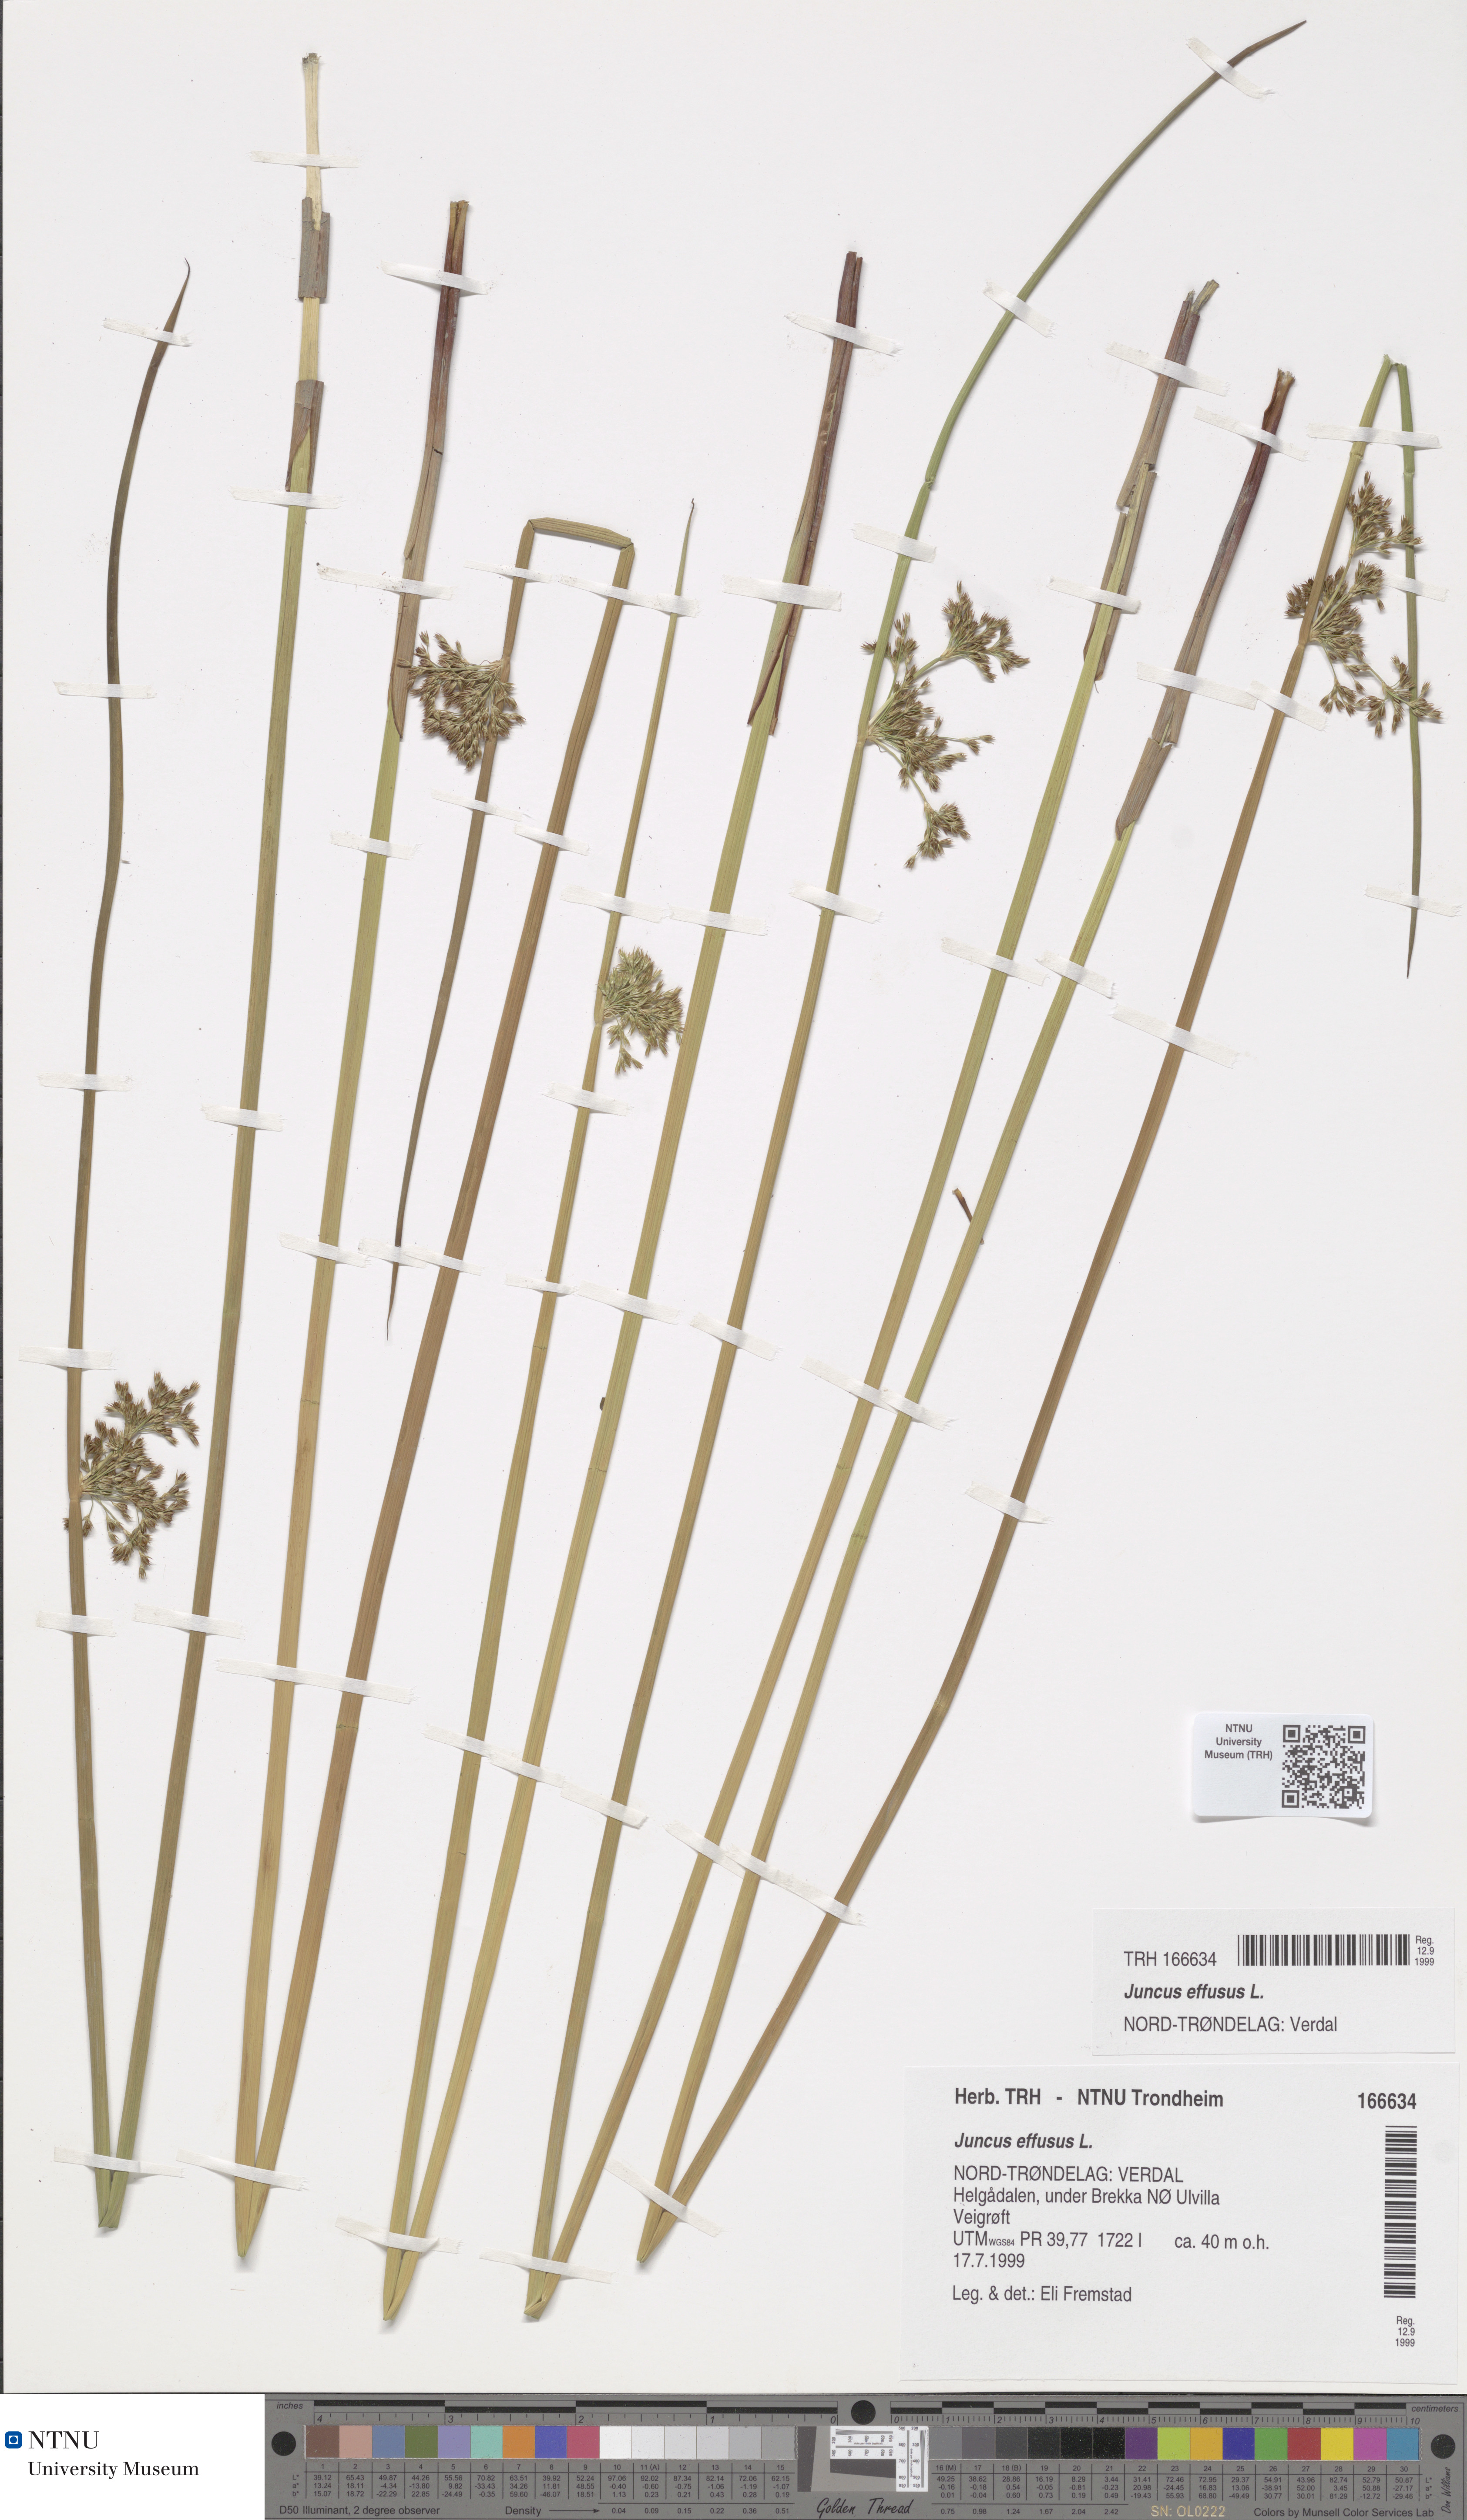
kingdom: Plantae
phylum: Tracheophyta
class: Liliopsida
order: Poales
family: Juncaceae
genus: Juncus
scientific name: Juncus effusus
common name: Soft rush
